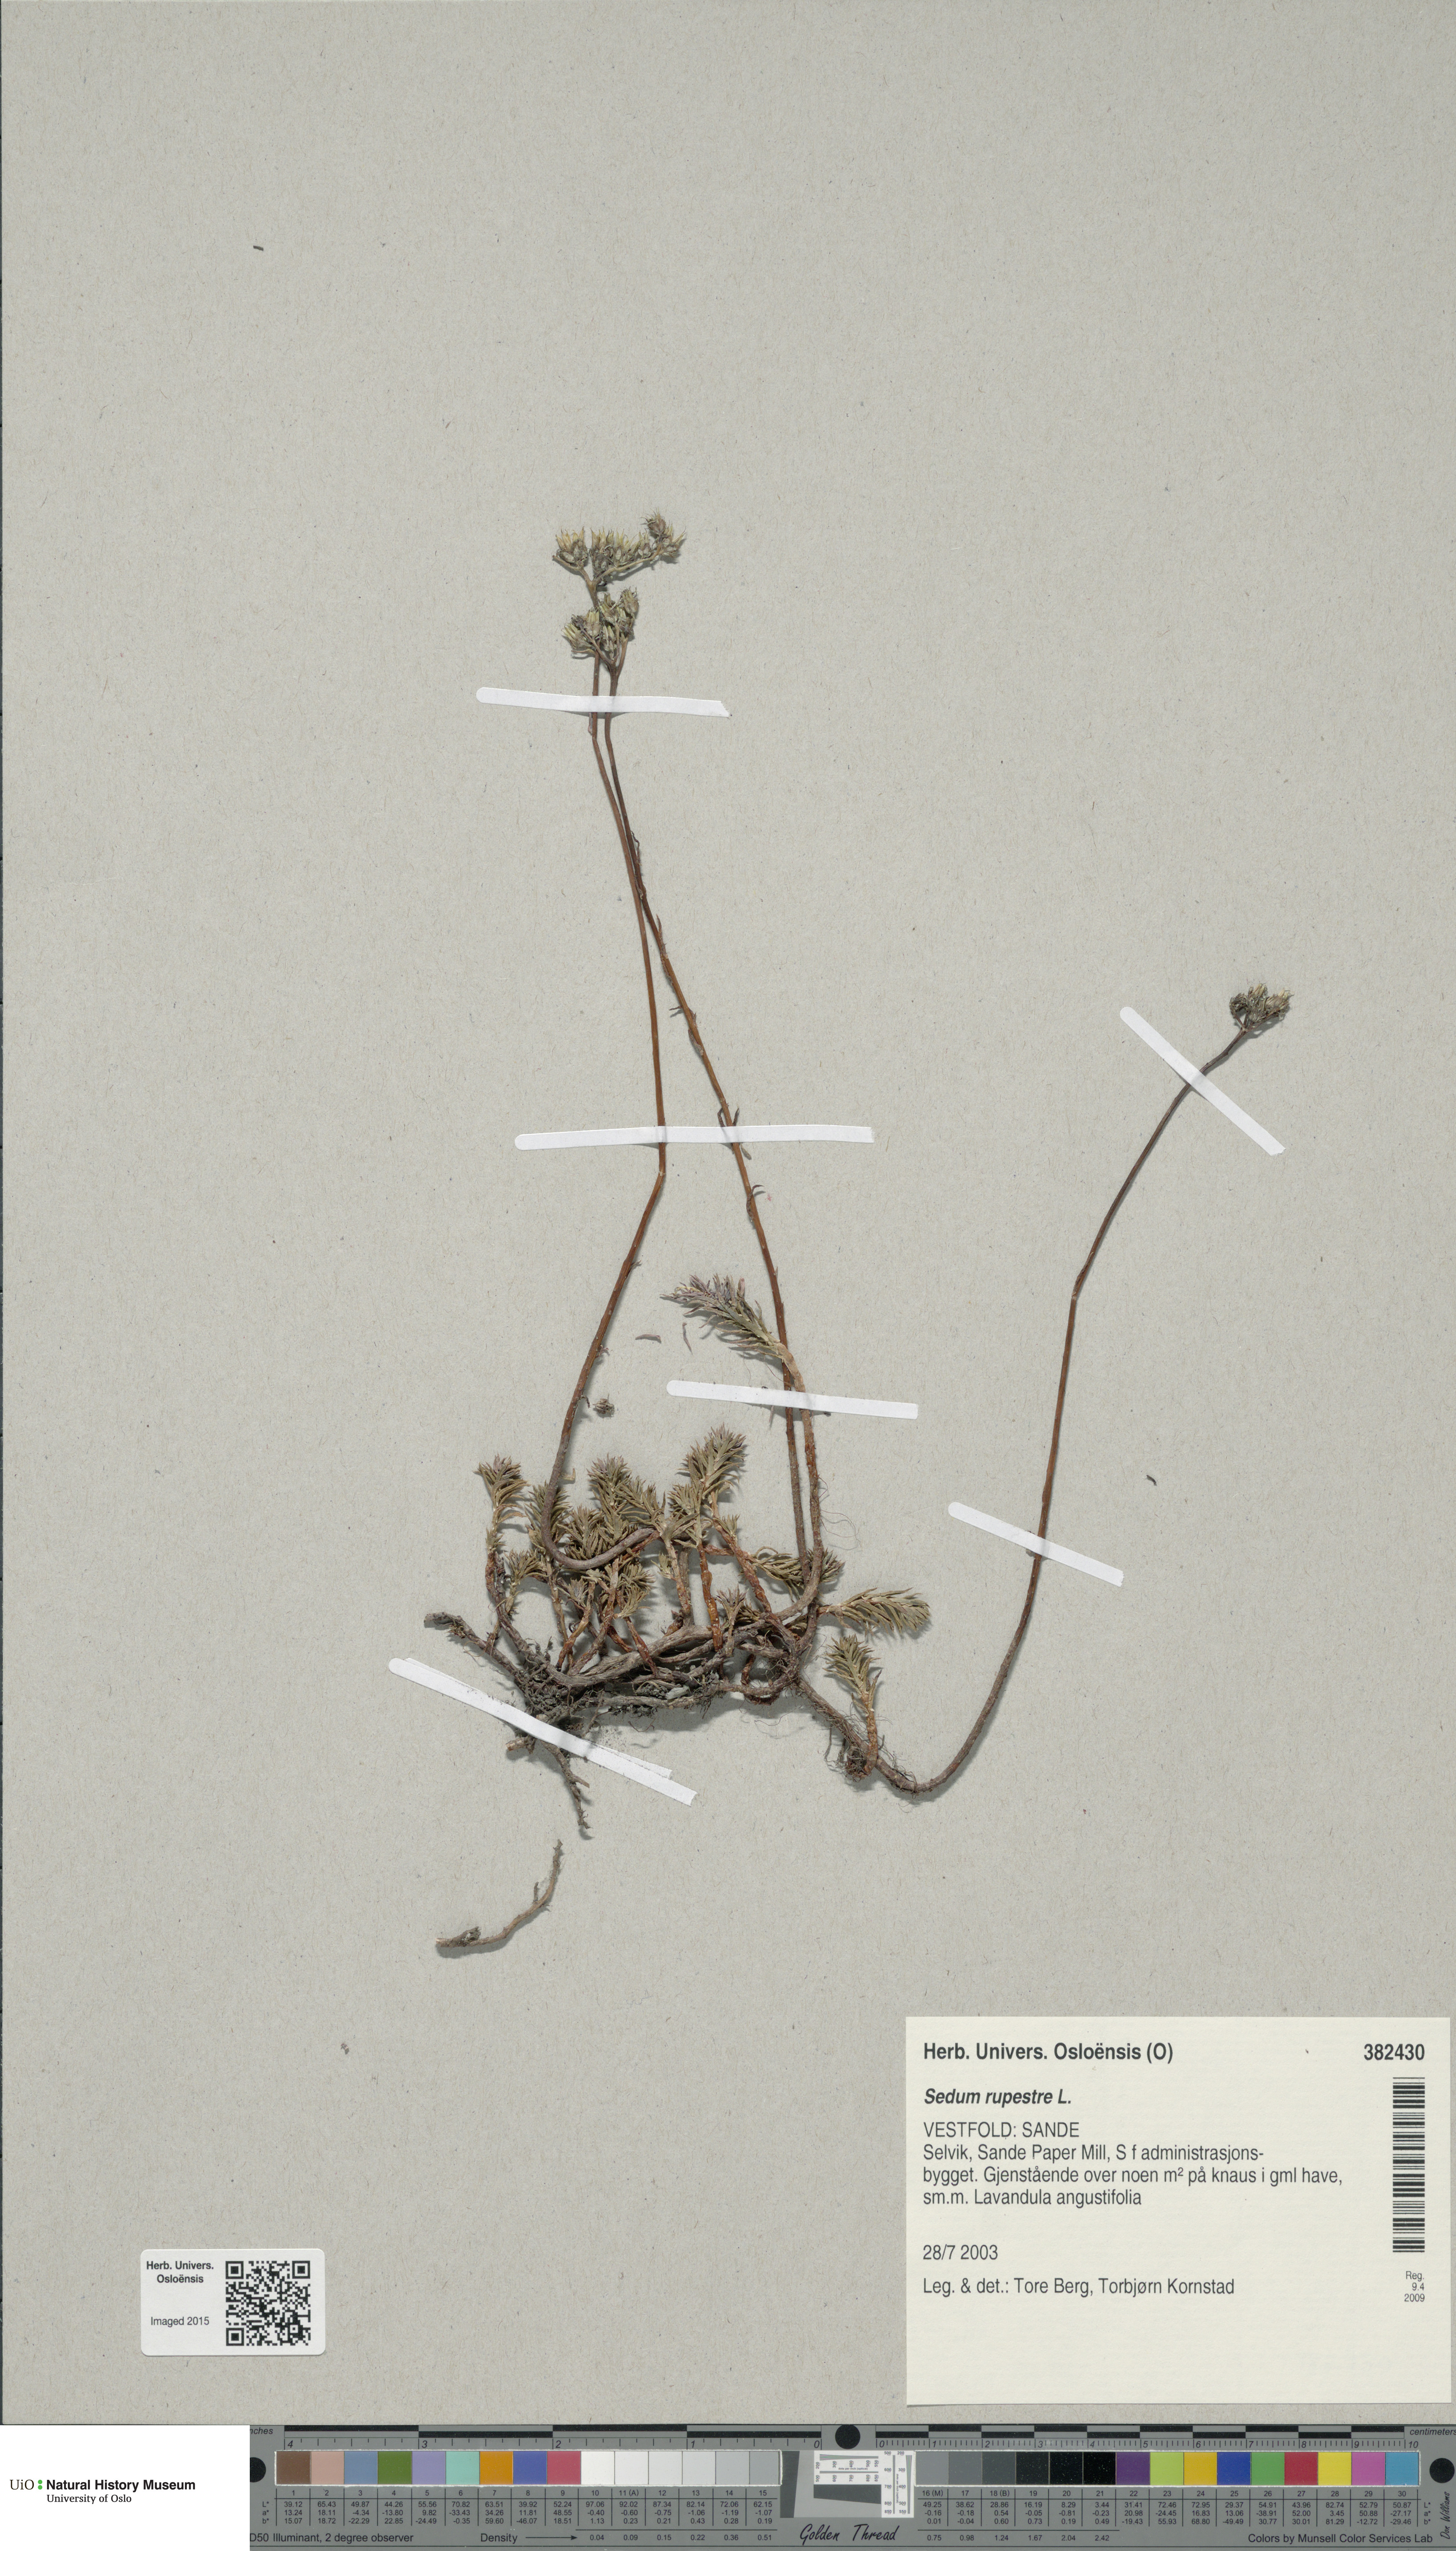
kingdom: Plantae
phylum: Tracheophyta
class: Magnoliopsida
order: Saxifragales
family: Crassulaceae
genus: Petrosedum
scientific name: Petrosedum rupestre
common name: Jenny's stonecrop
